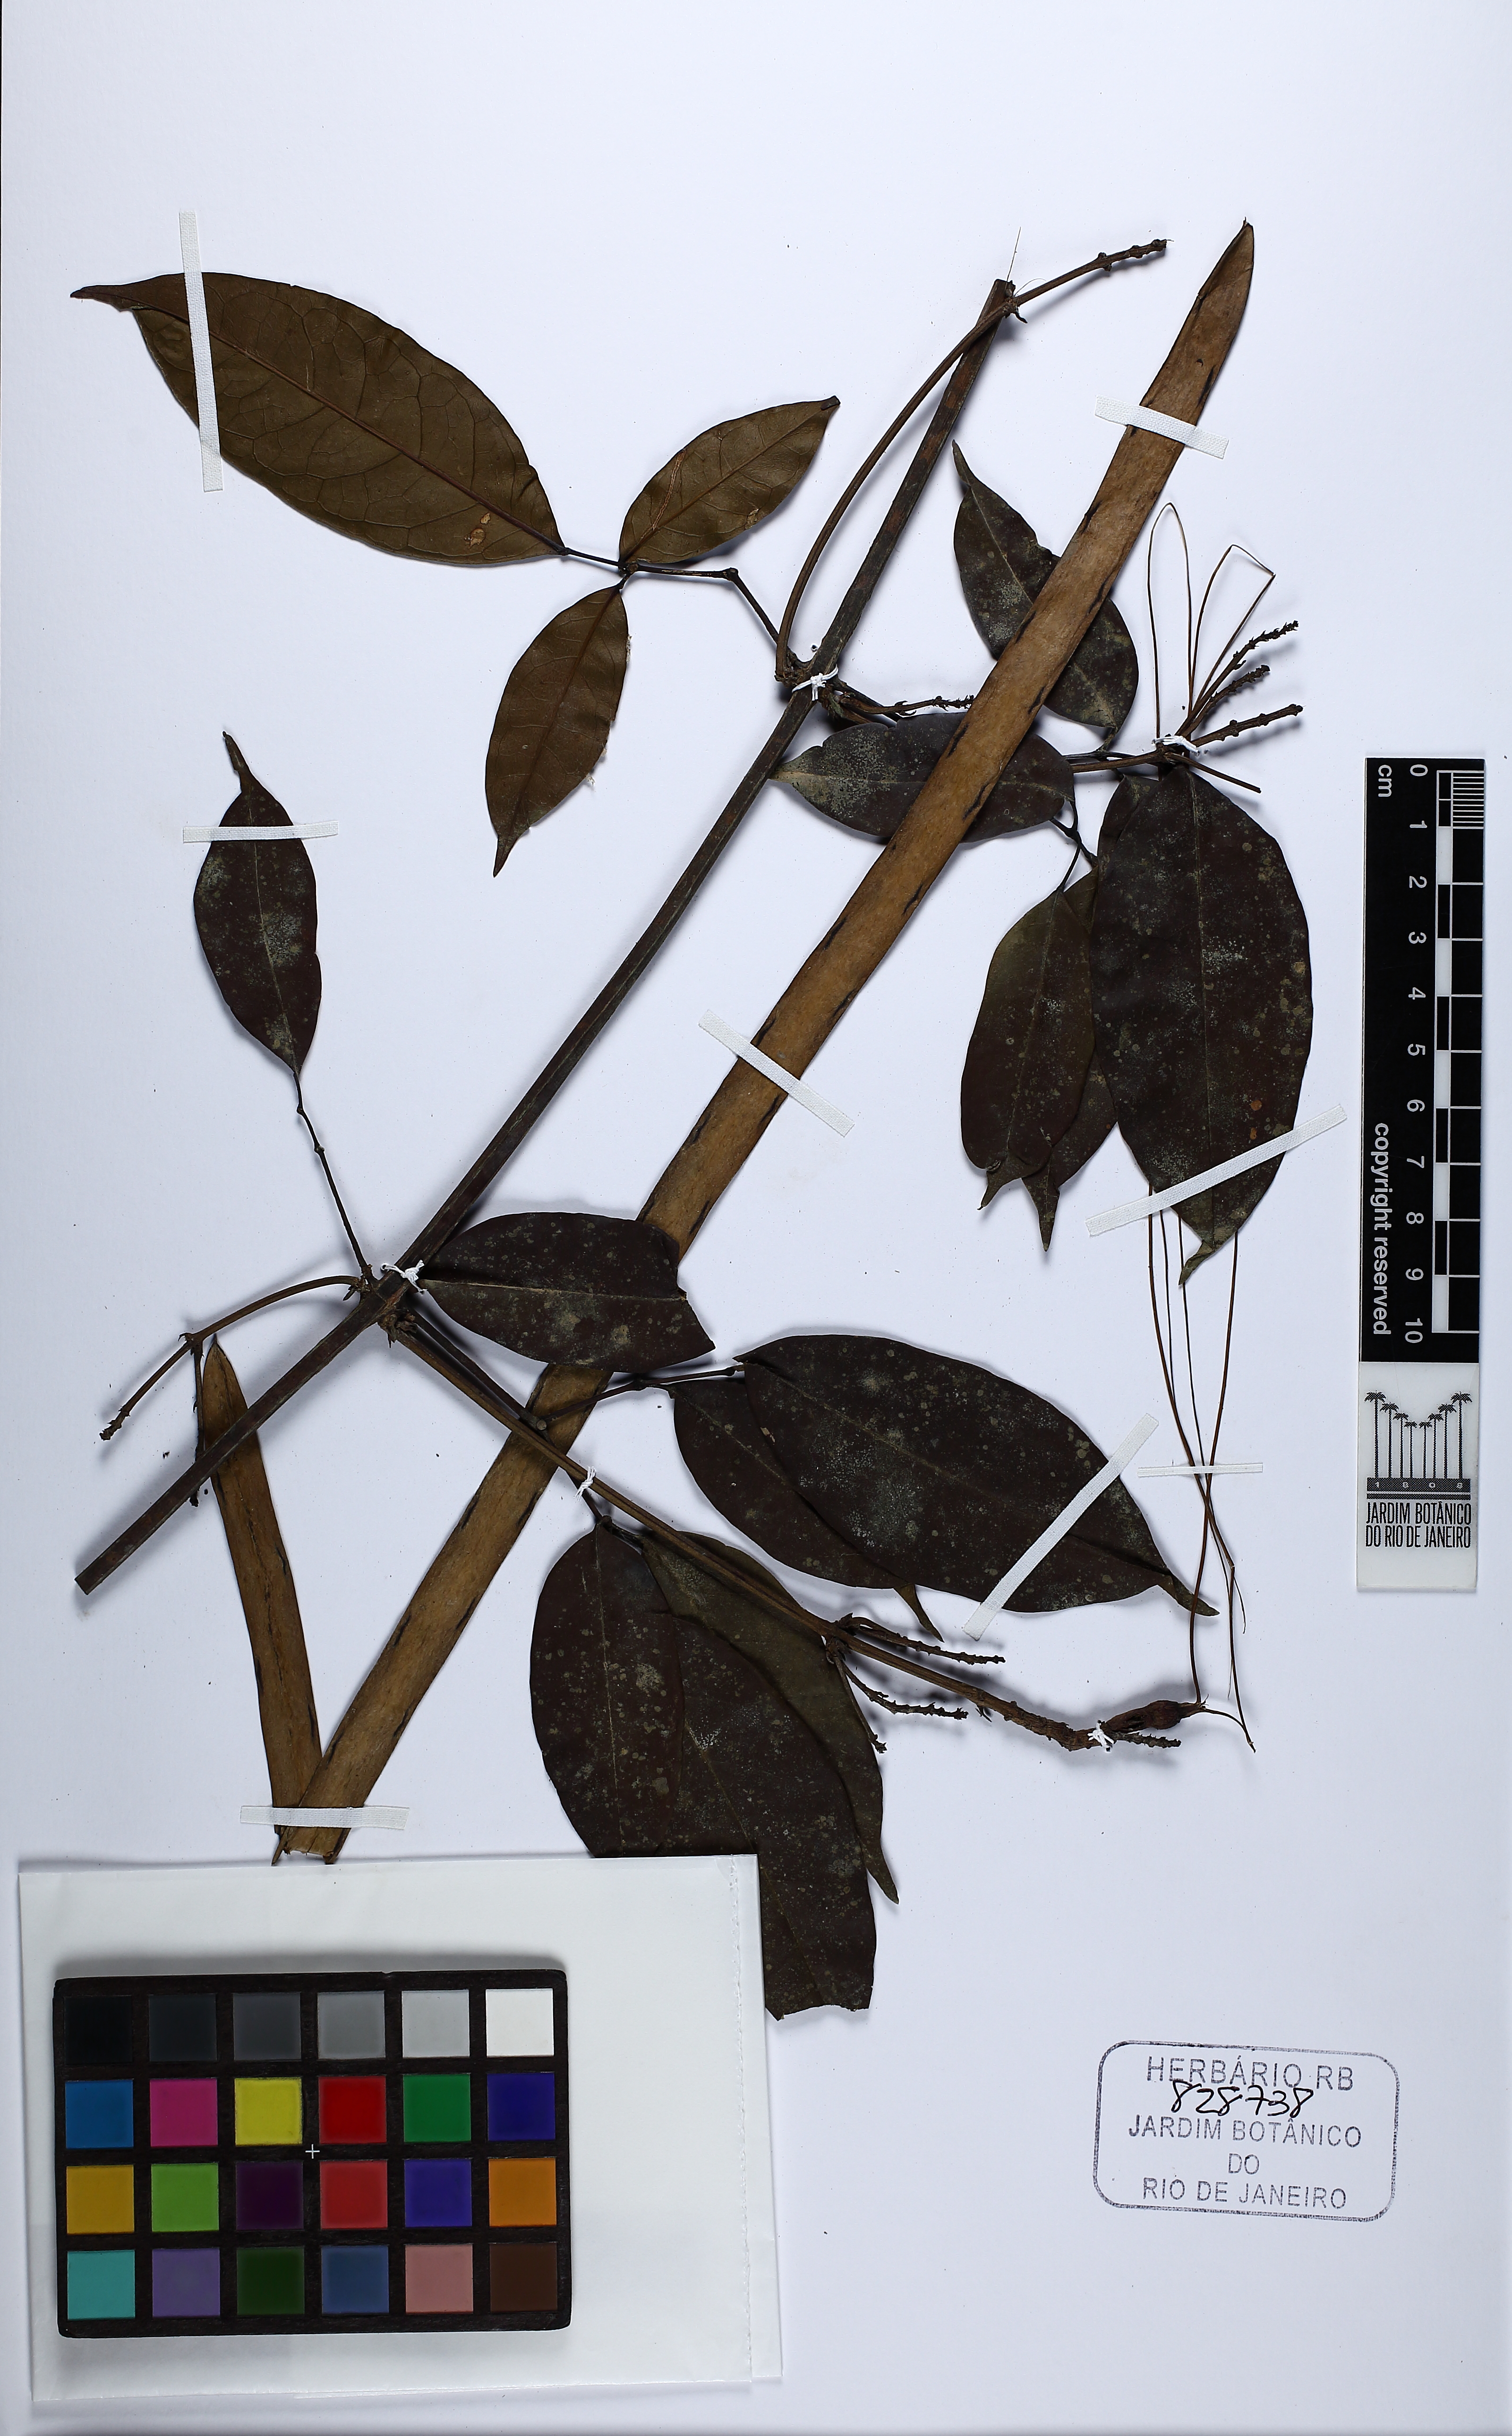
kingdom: Plantae
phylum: Tracheophyta
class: Magnoliopsida
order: Lamiales
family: Bignoniaceae
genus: Pleonotoma
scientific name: Pleonotoma pavettiflora
